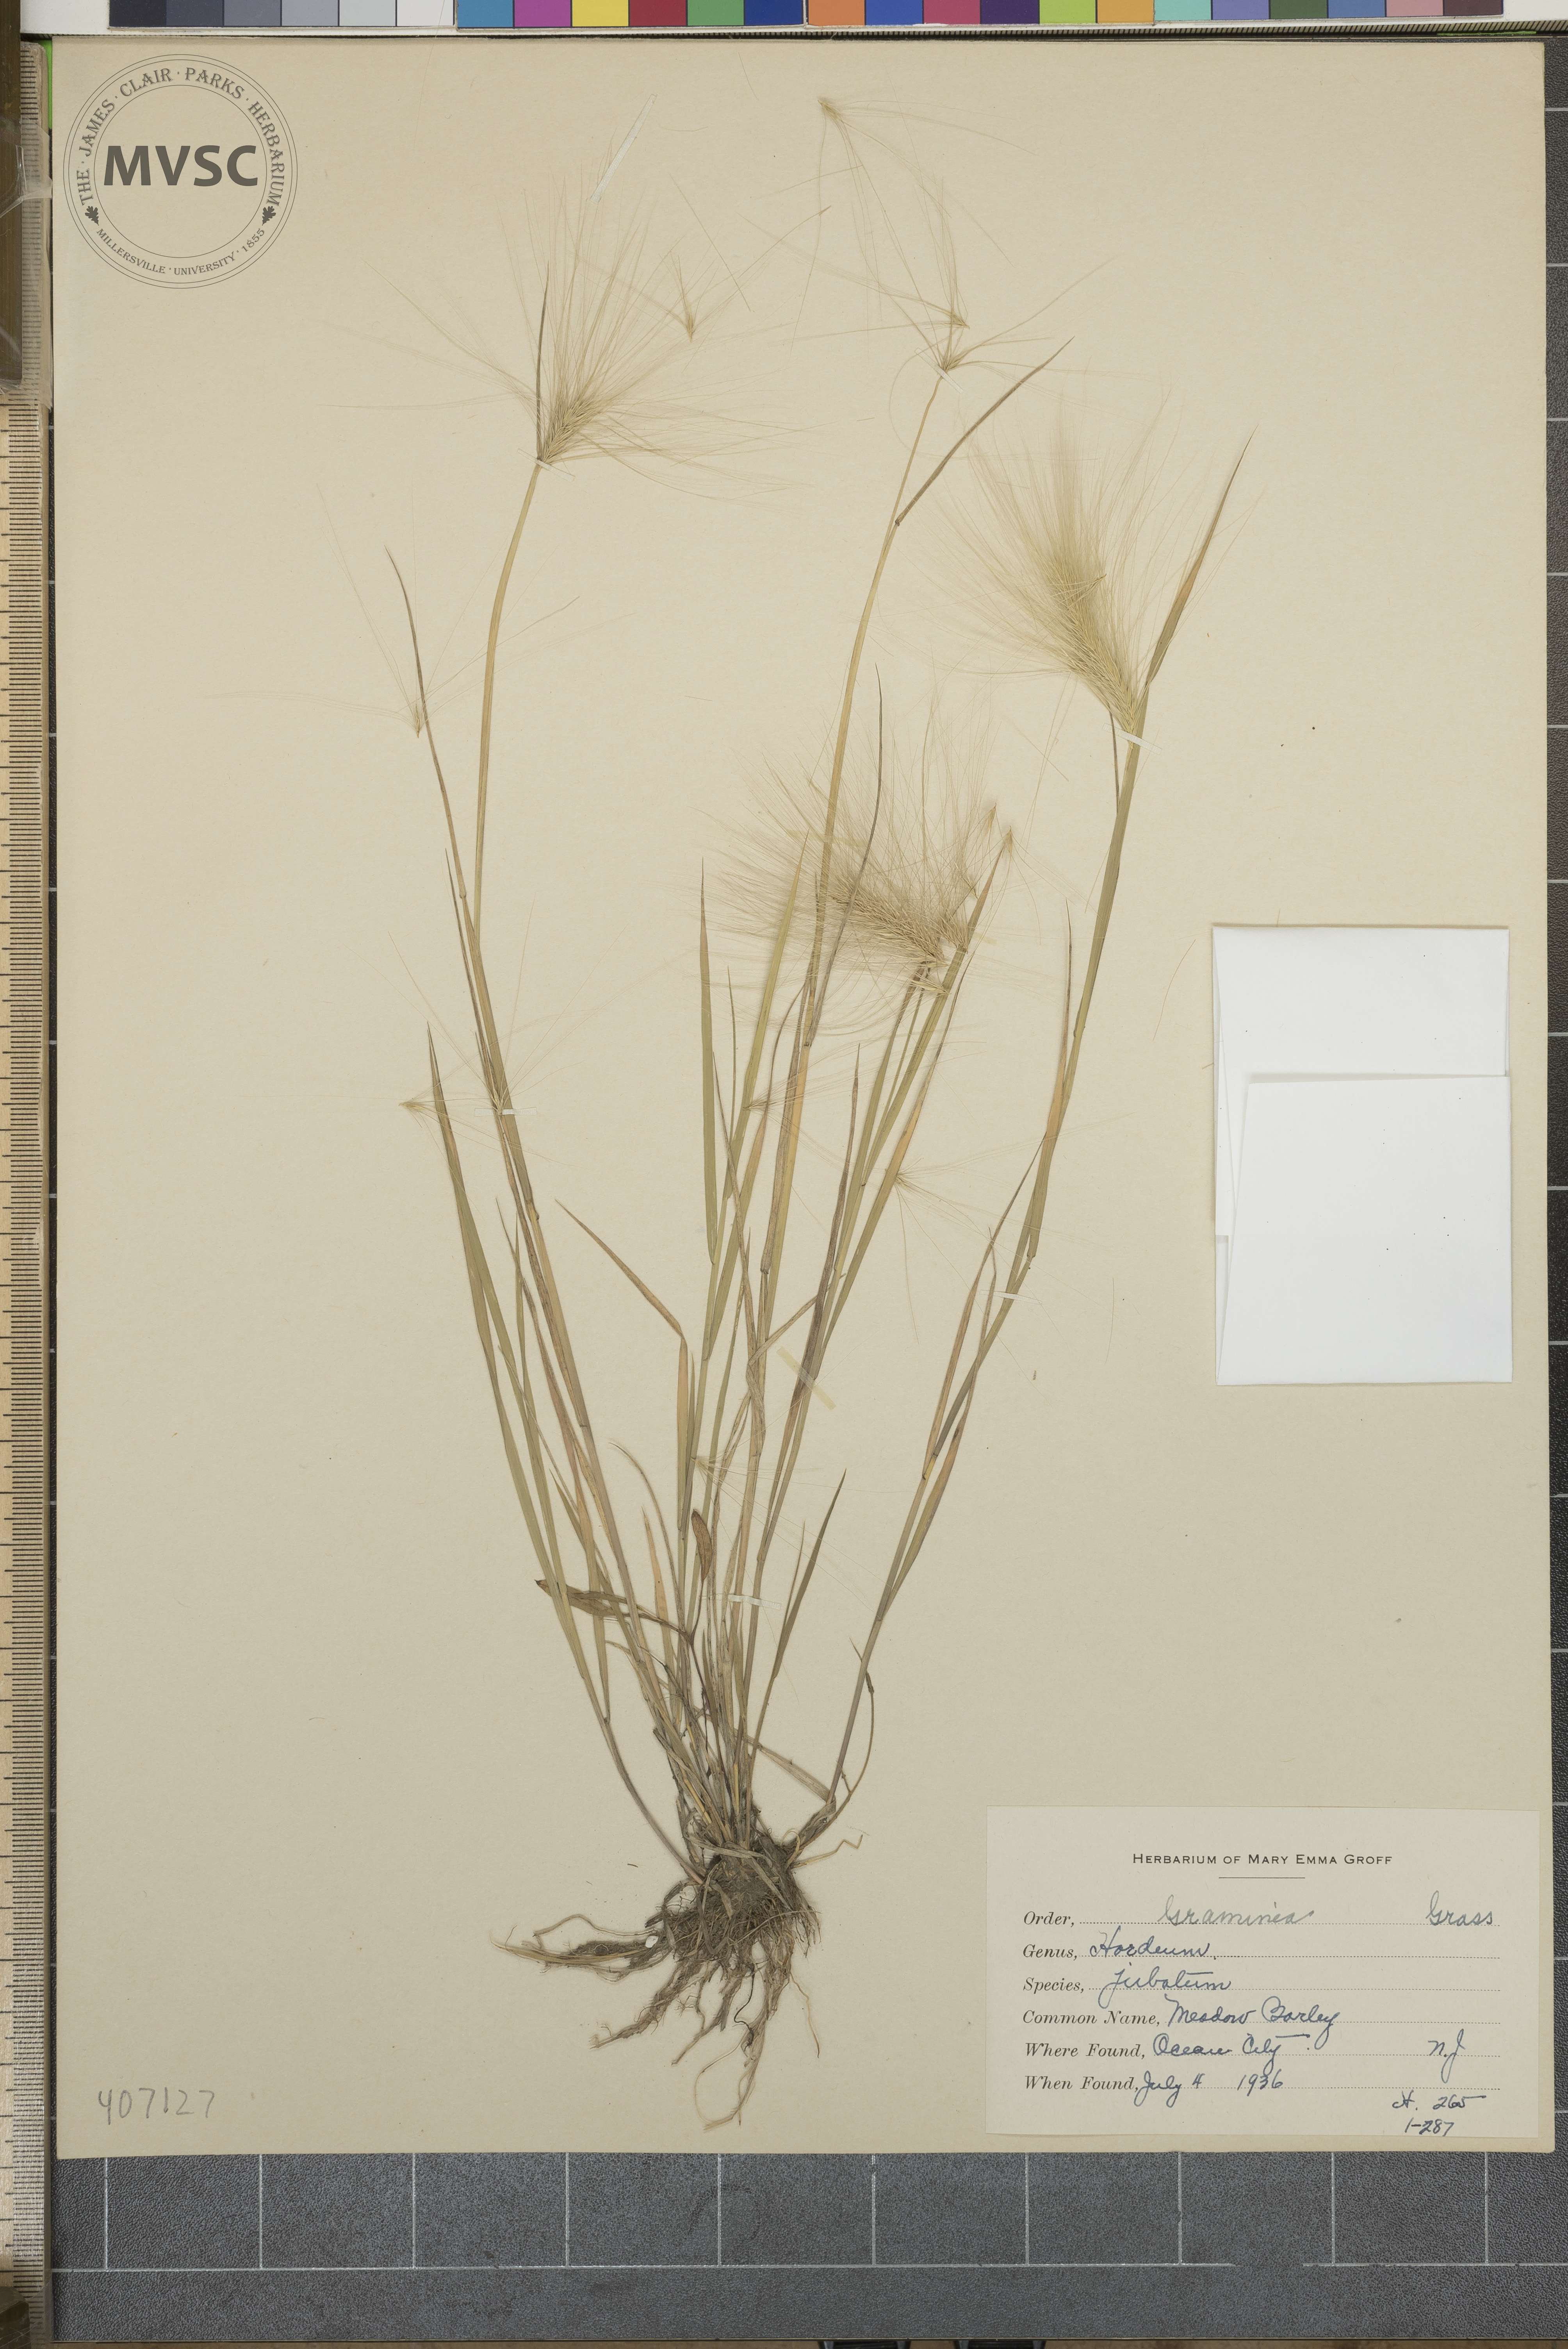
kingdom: Plantae
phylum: Tracheophyta
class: Liliopsida
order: Poales
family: Poaceae
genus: Hordeum
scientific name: Hordeum jubatum
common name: Foxtail barley
